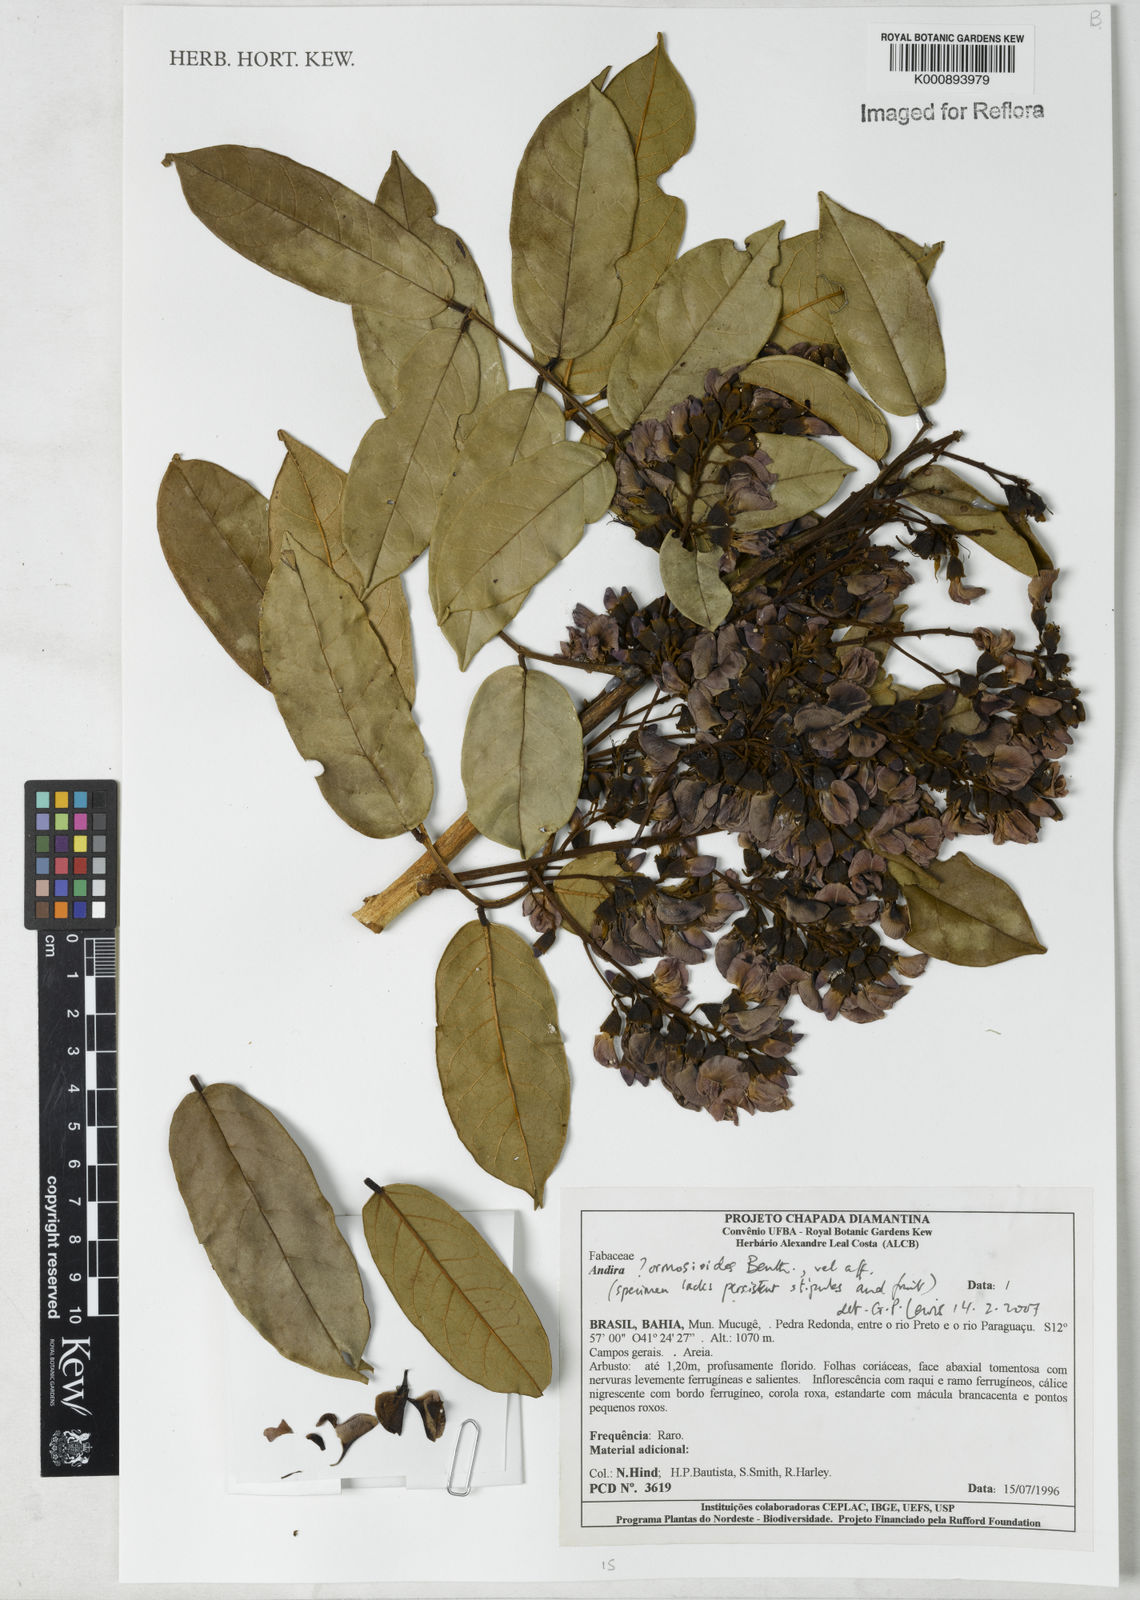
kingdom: Plantae
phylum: Tracheophyta
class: Magnoliopsida
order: Fabales
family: Fabaceae
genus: Andira
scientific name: Andira ormosioides
